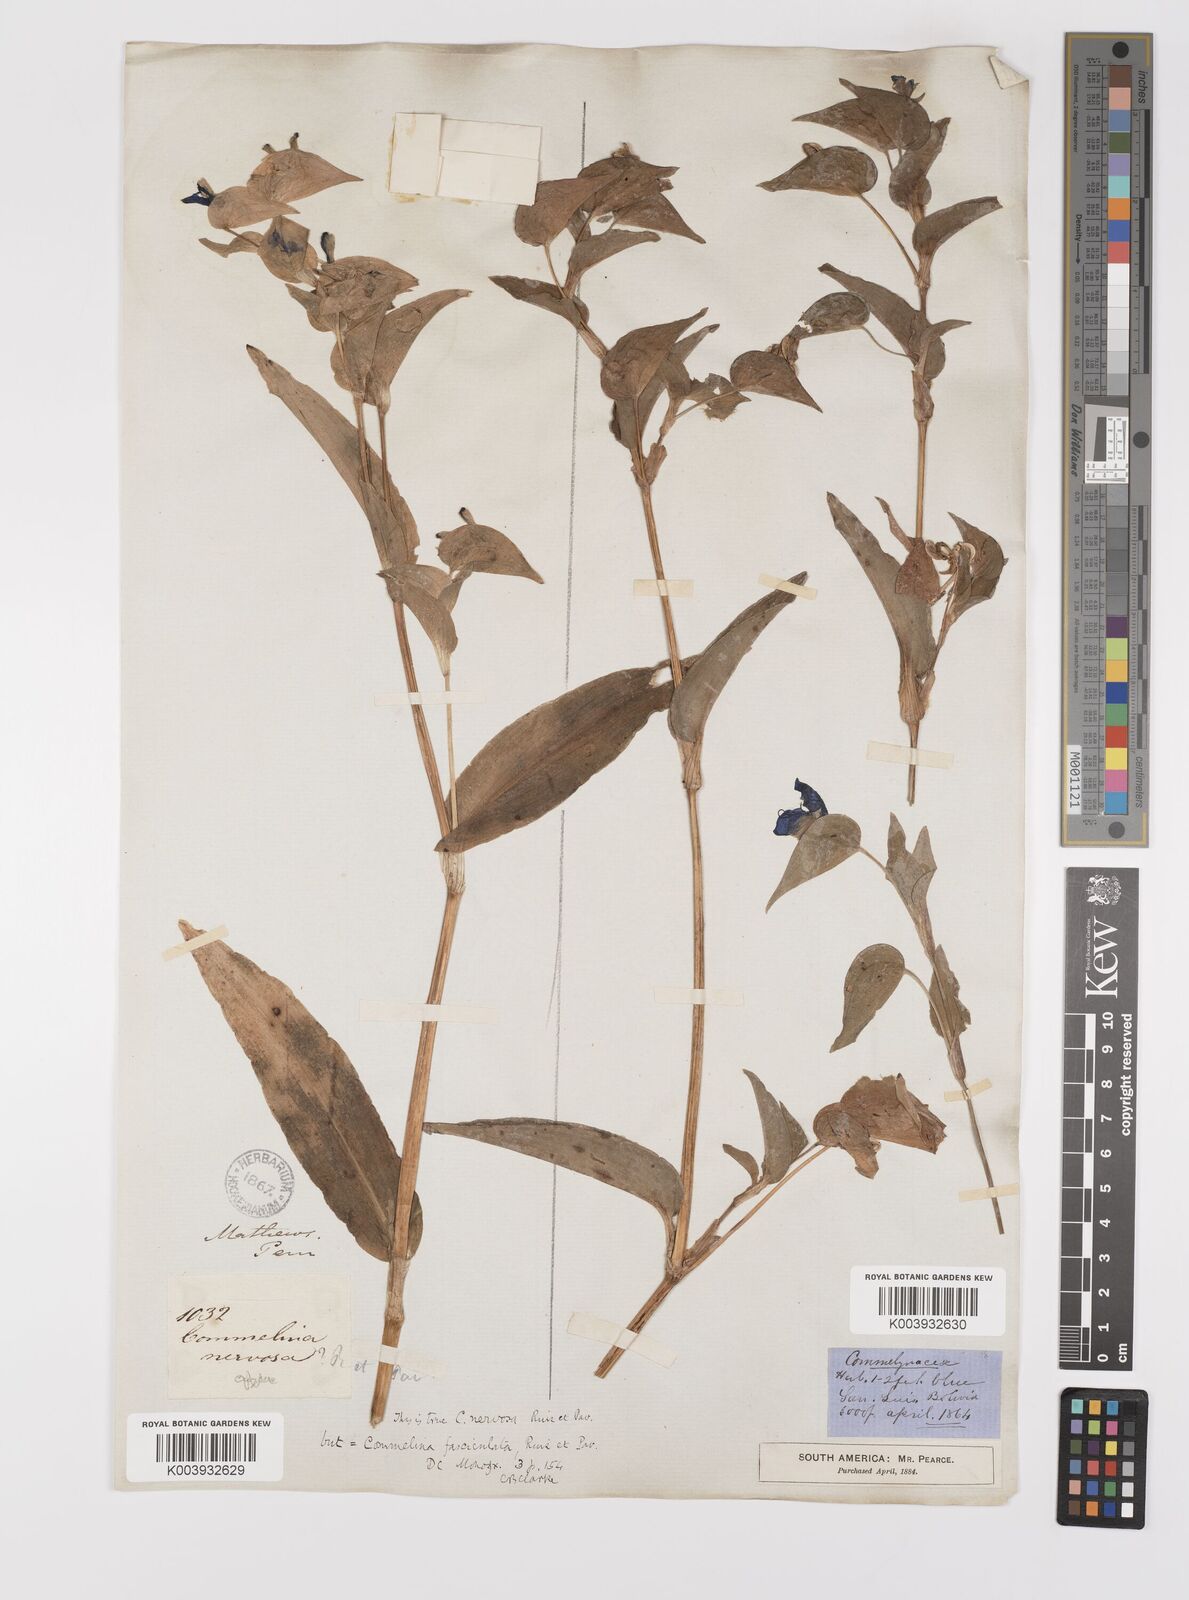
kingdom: Plantae
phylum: Tracheophyta
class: Liliopsida
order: Commelinales
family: Commelinaceae
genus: Commelina
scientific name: Commelina tuberosa
